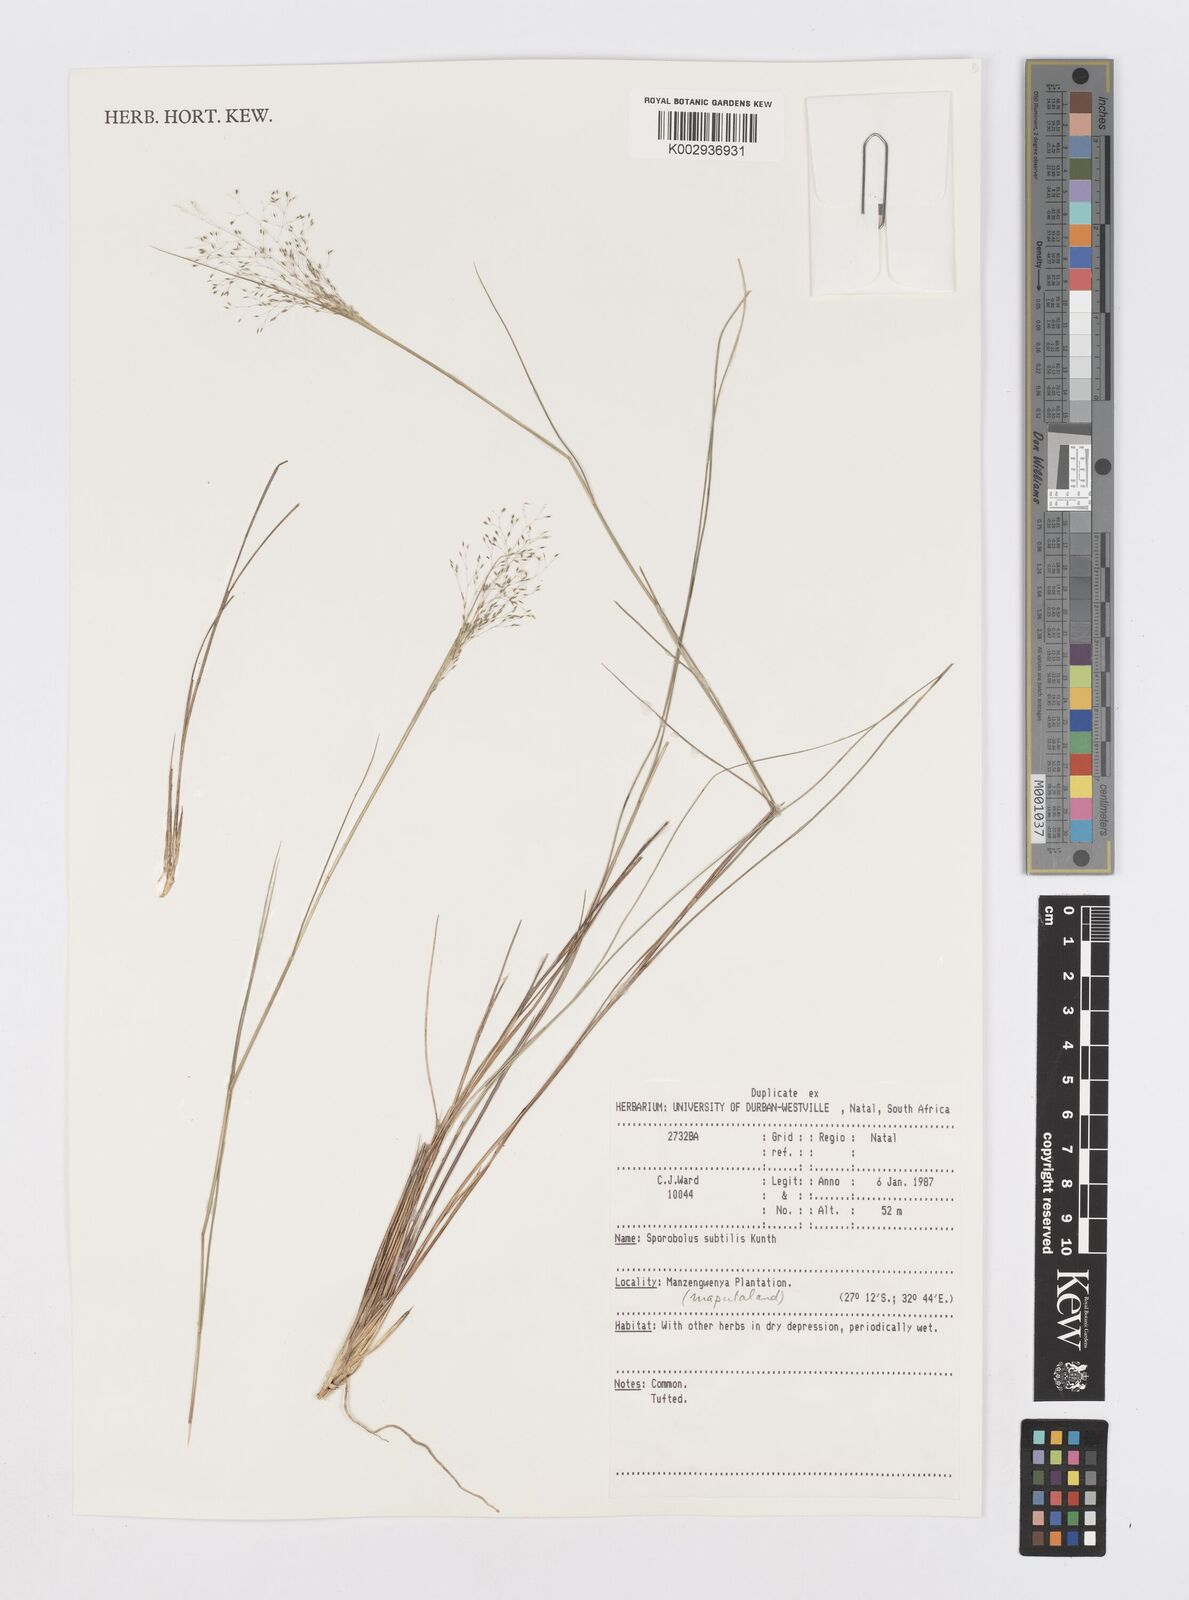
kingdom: Plantae
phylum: Tracheophyta
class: Liliopsida
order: Poales
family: Poaceae
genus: Sporobolus
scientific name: Sporobolus subtilis
